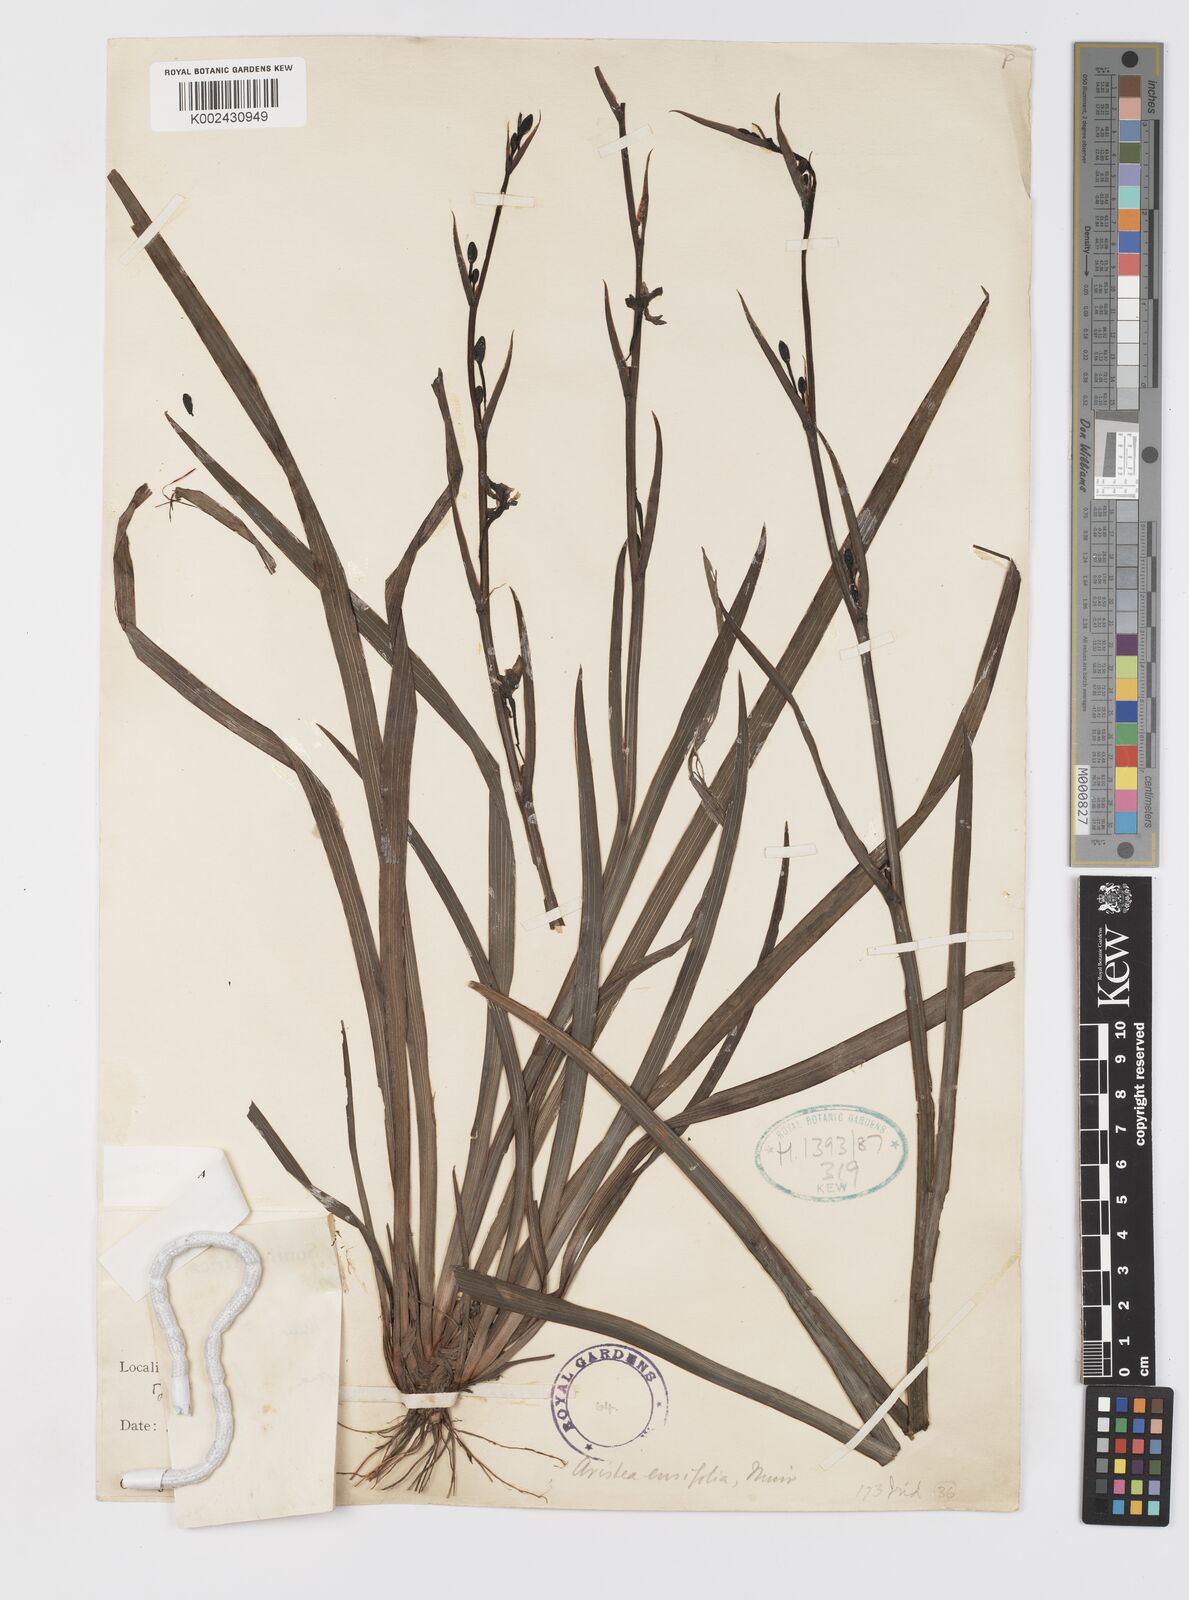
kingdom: Plantae
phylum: Tracheophyta
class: Liliopsida
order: Asparagales
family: Iridaceae
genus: Aristea
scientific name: Aristea ensifolia
